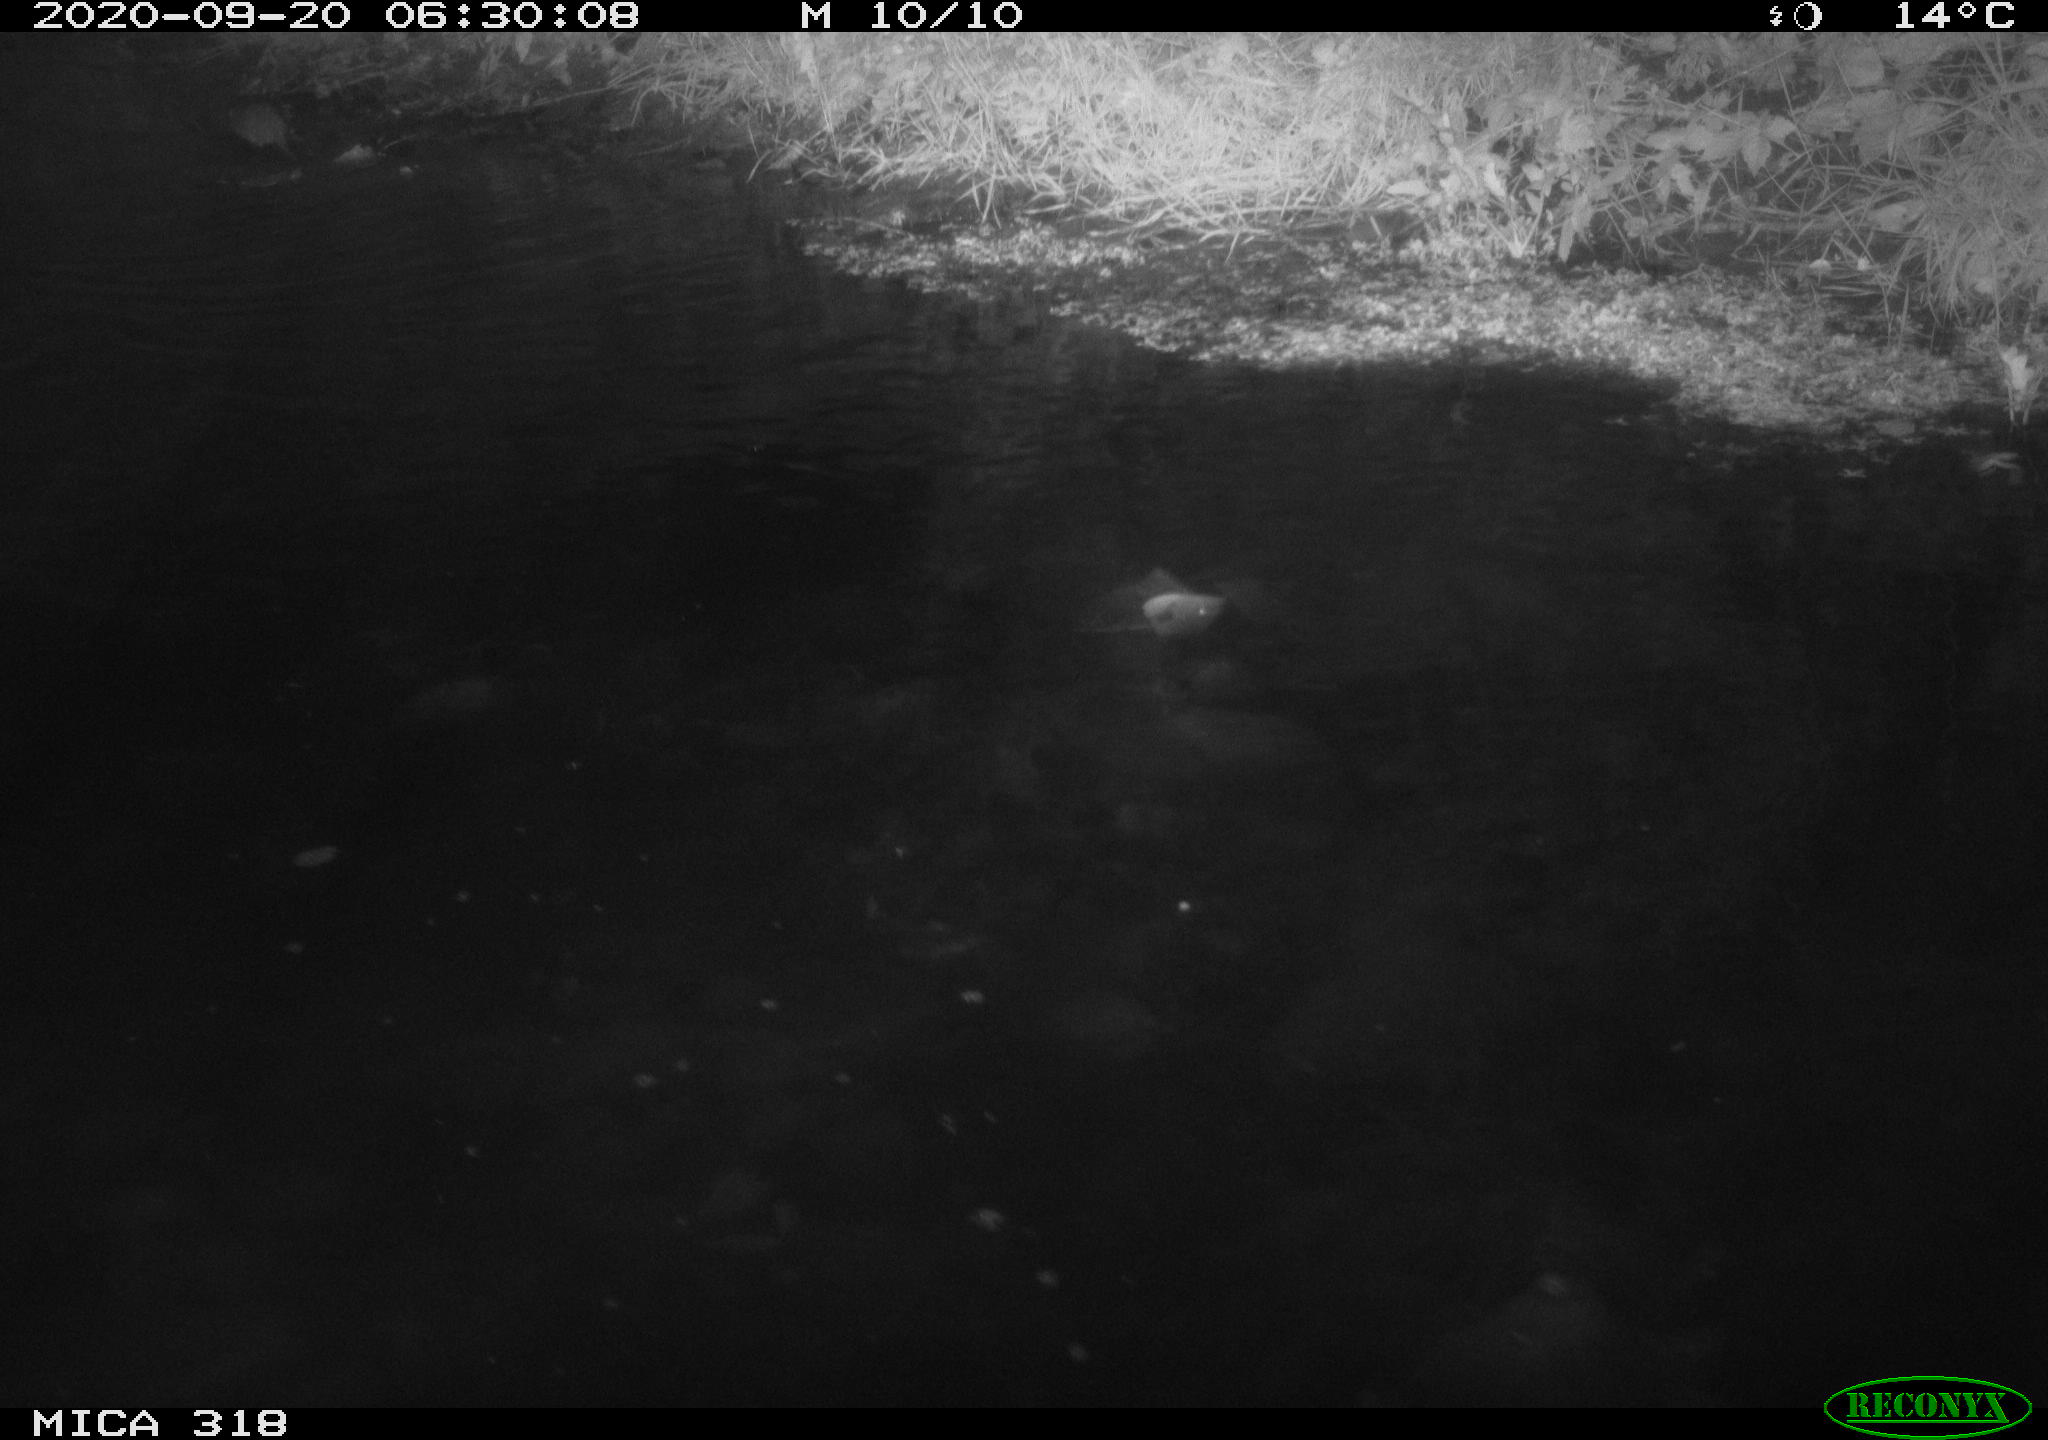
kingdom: Animalia
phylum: Chordata
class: Mammalia
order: Rodentia
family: Muridae
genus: Rattus
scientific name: Rattus norvegicus
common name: Brown rat
